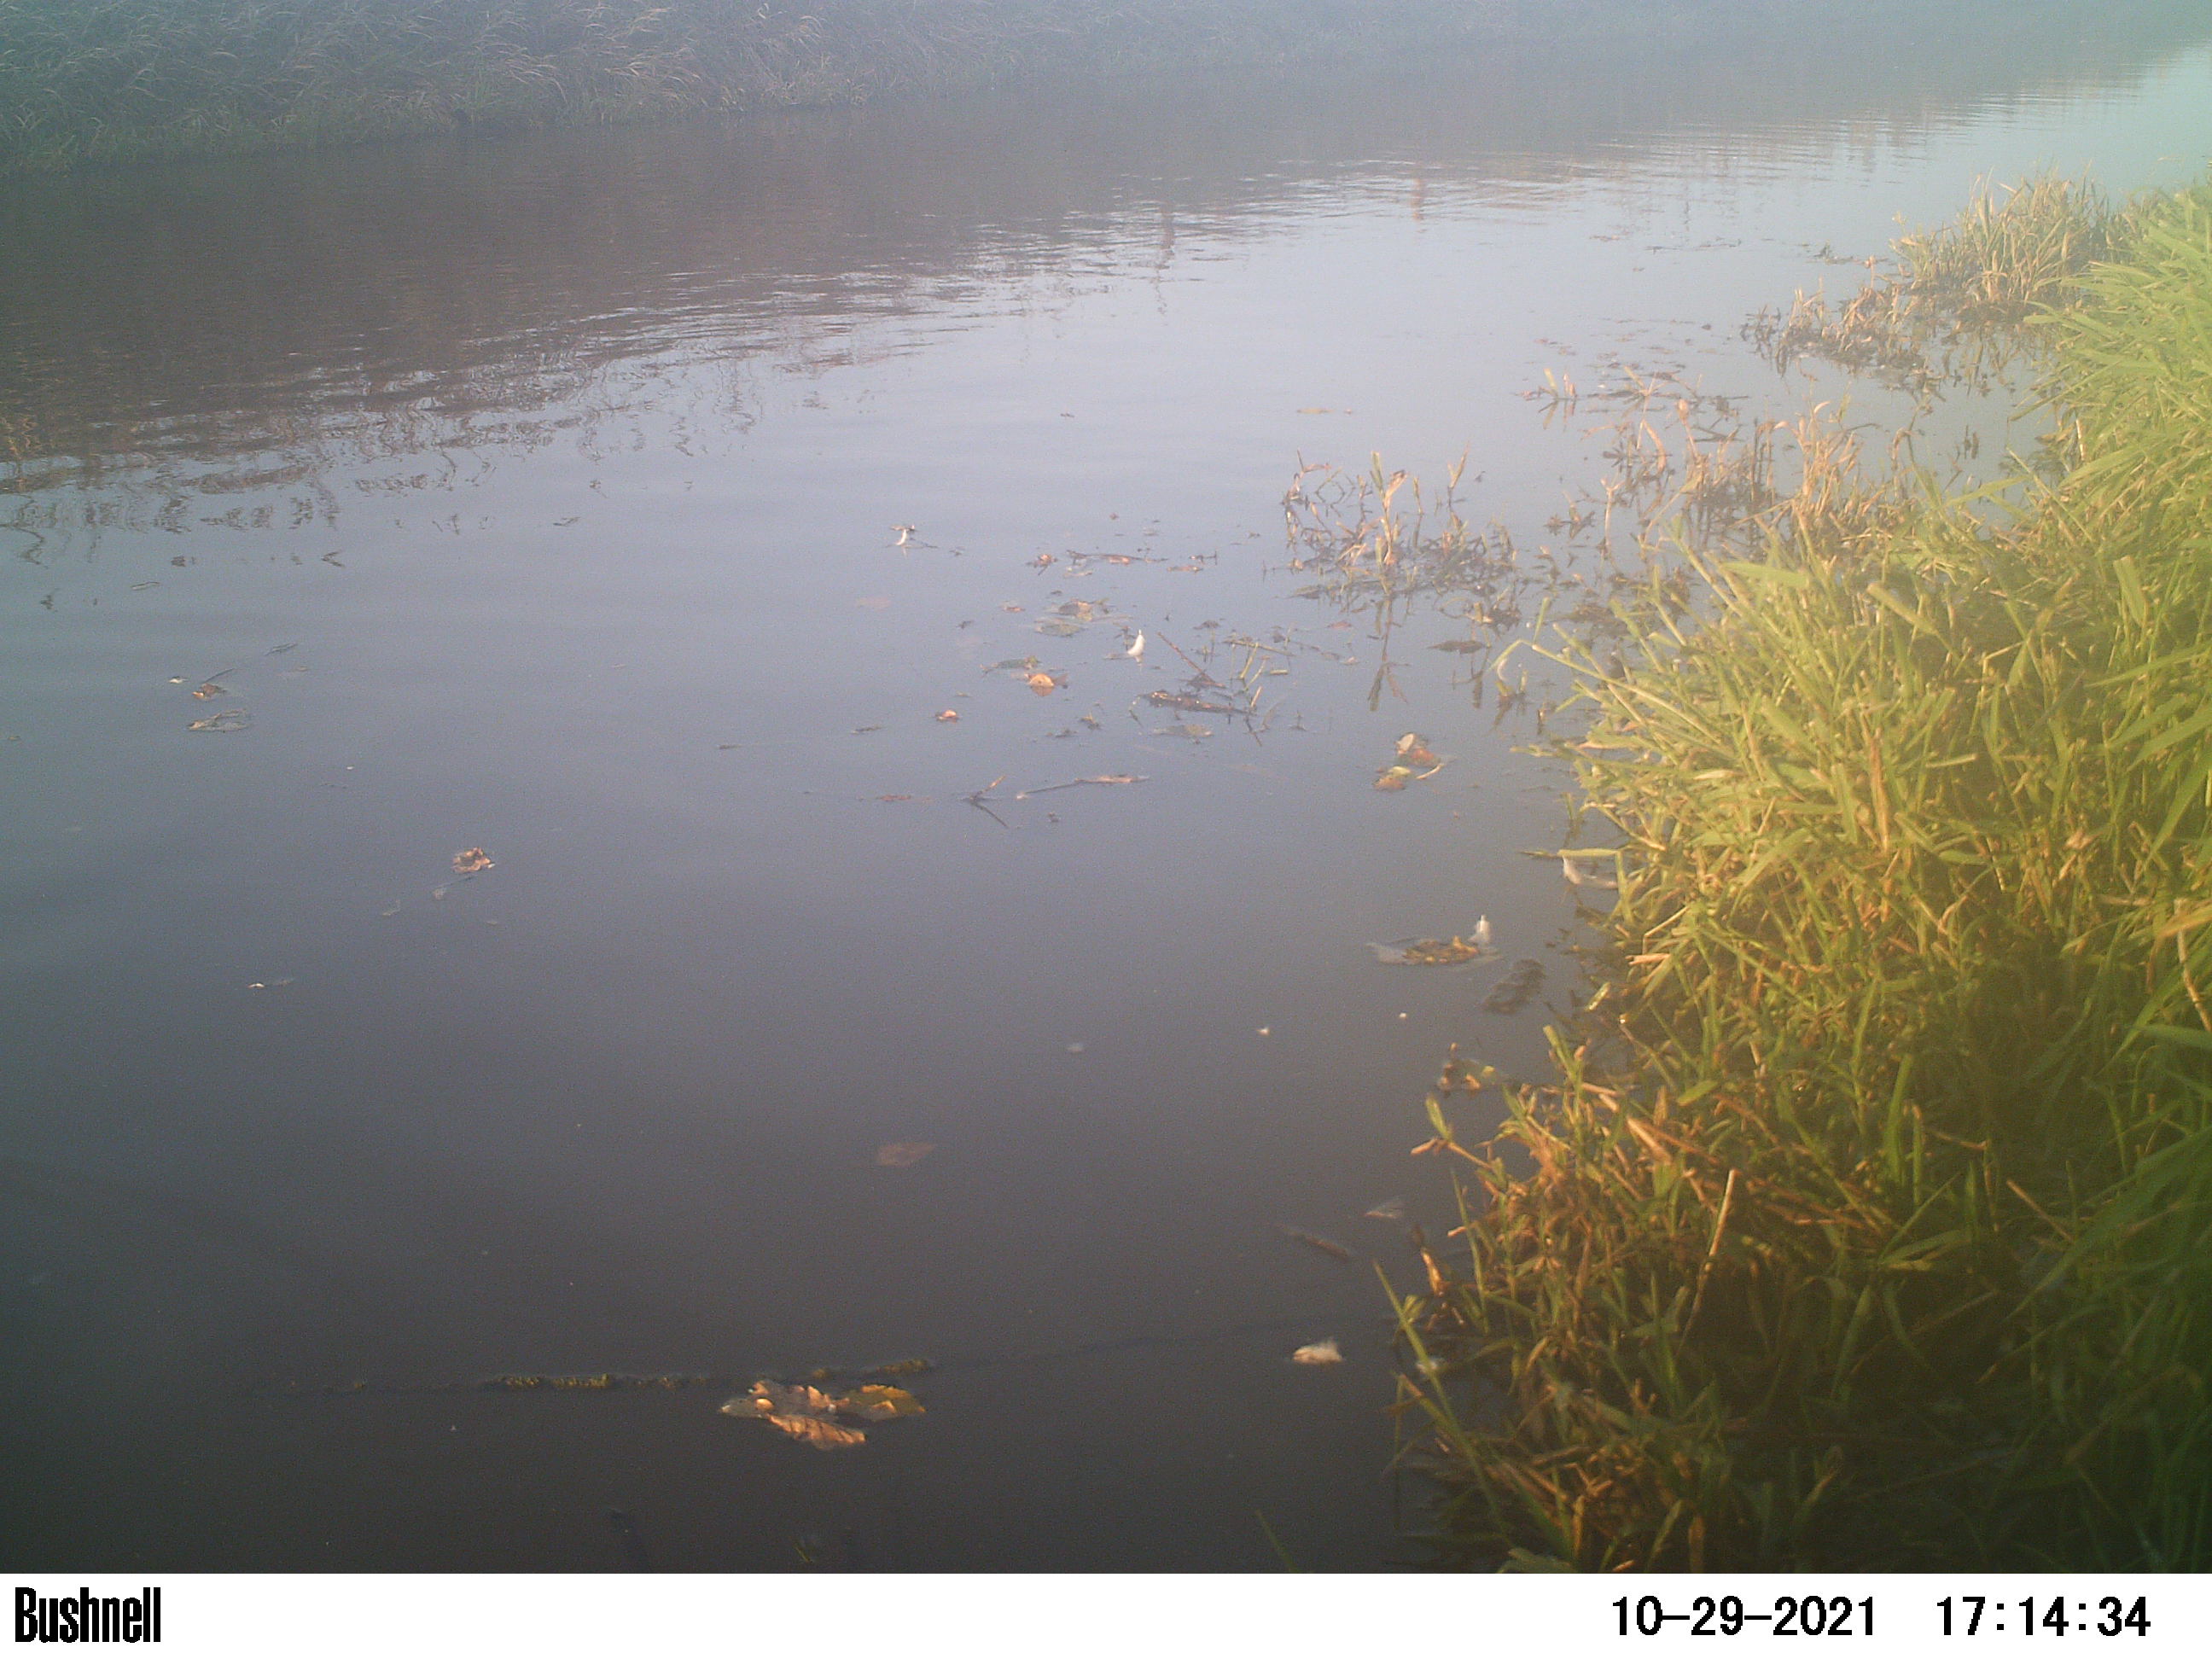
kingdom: Animalia
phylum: Chordata
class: Aves
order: Gruiformes
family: Rallidae
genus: Gallinula
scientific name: Gallinula chloropus
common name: Common moorhen
